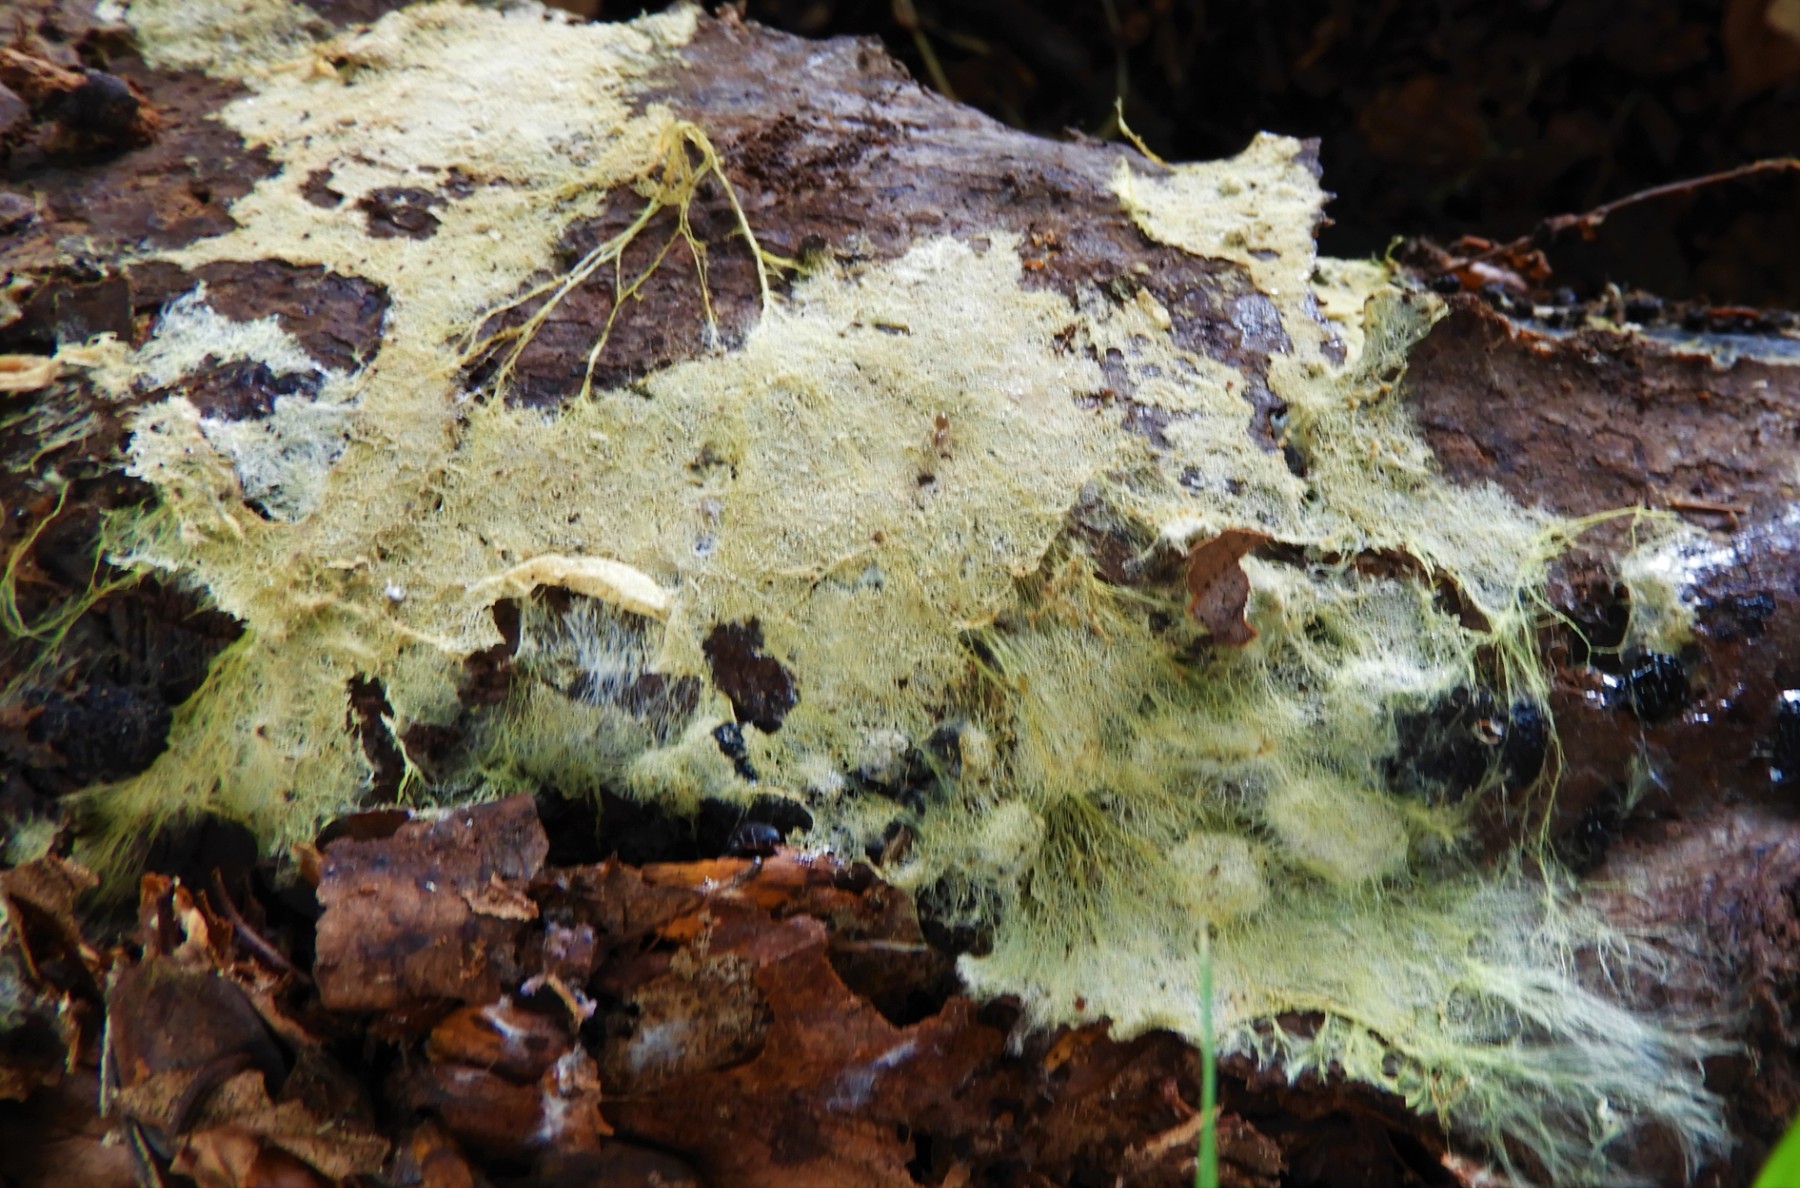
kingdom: Fungi
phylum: Basidiomycota
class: Agaricomycetes
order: Russulales
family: Xenasmataceae
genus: Xenasmatella
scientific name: Xenasmatella vaga
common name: svovl-strenghinde
